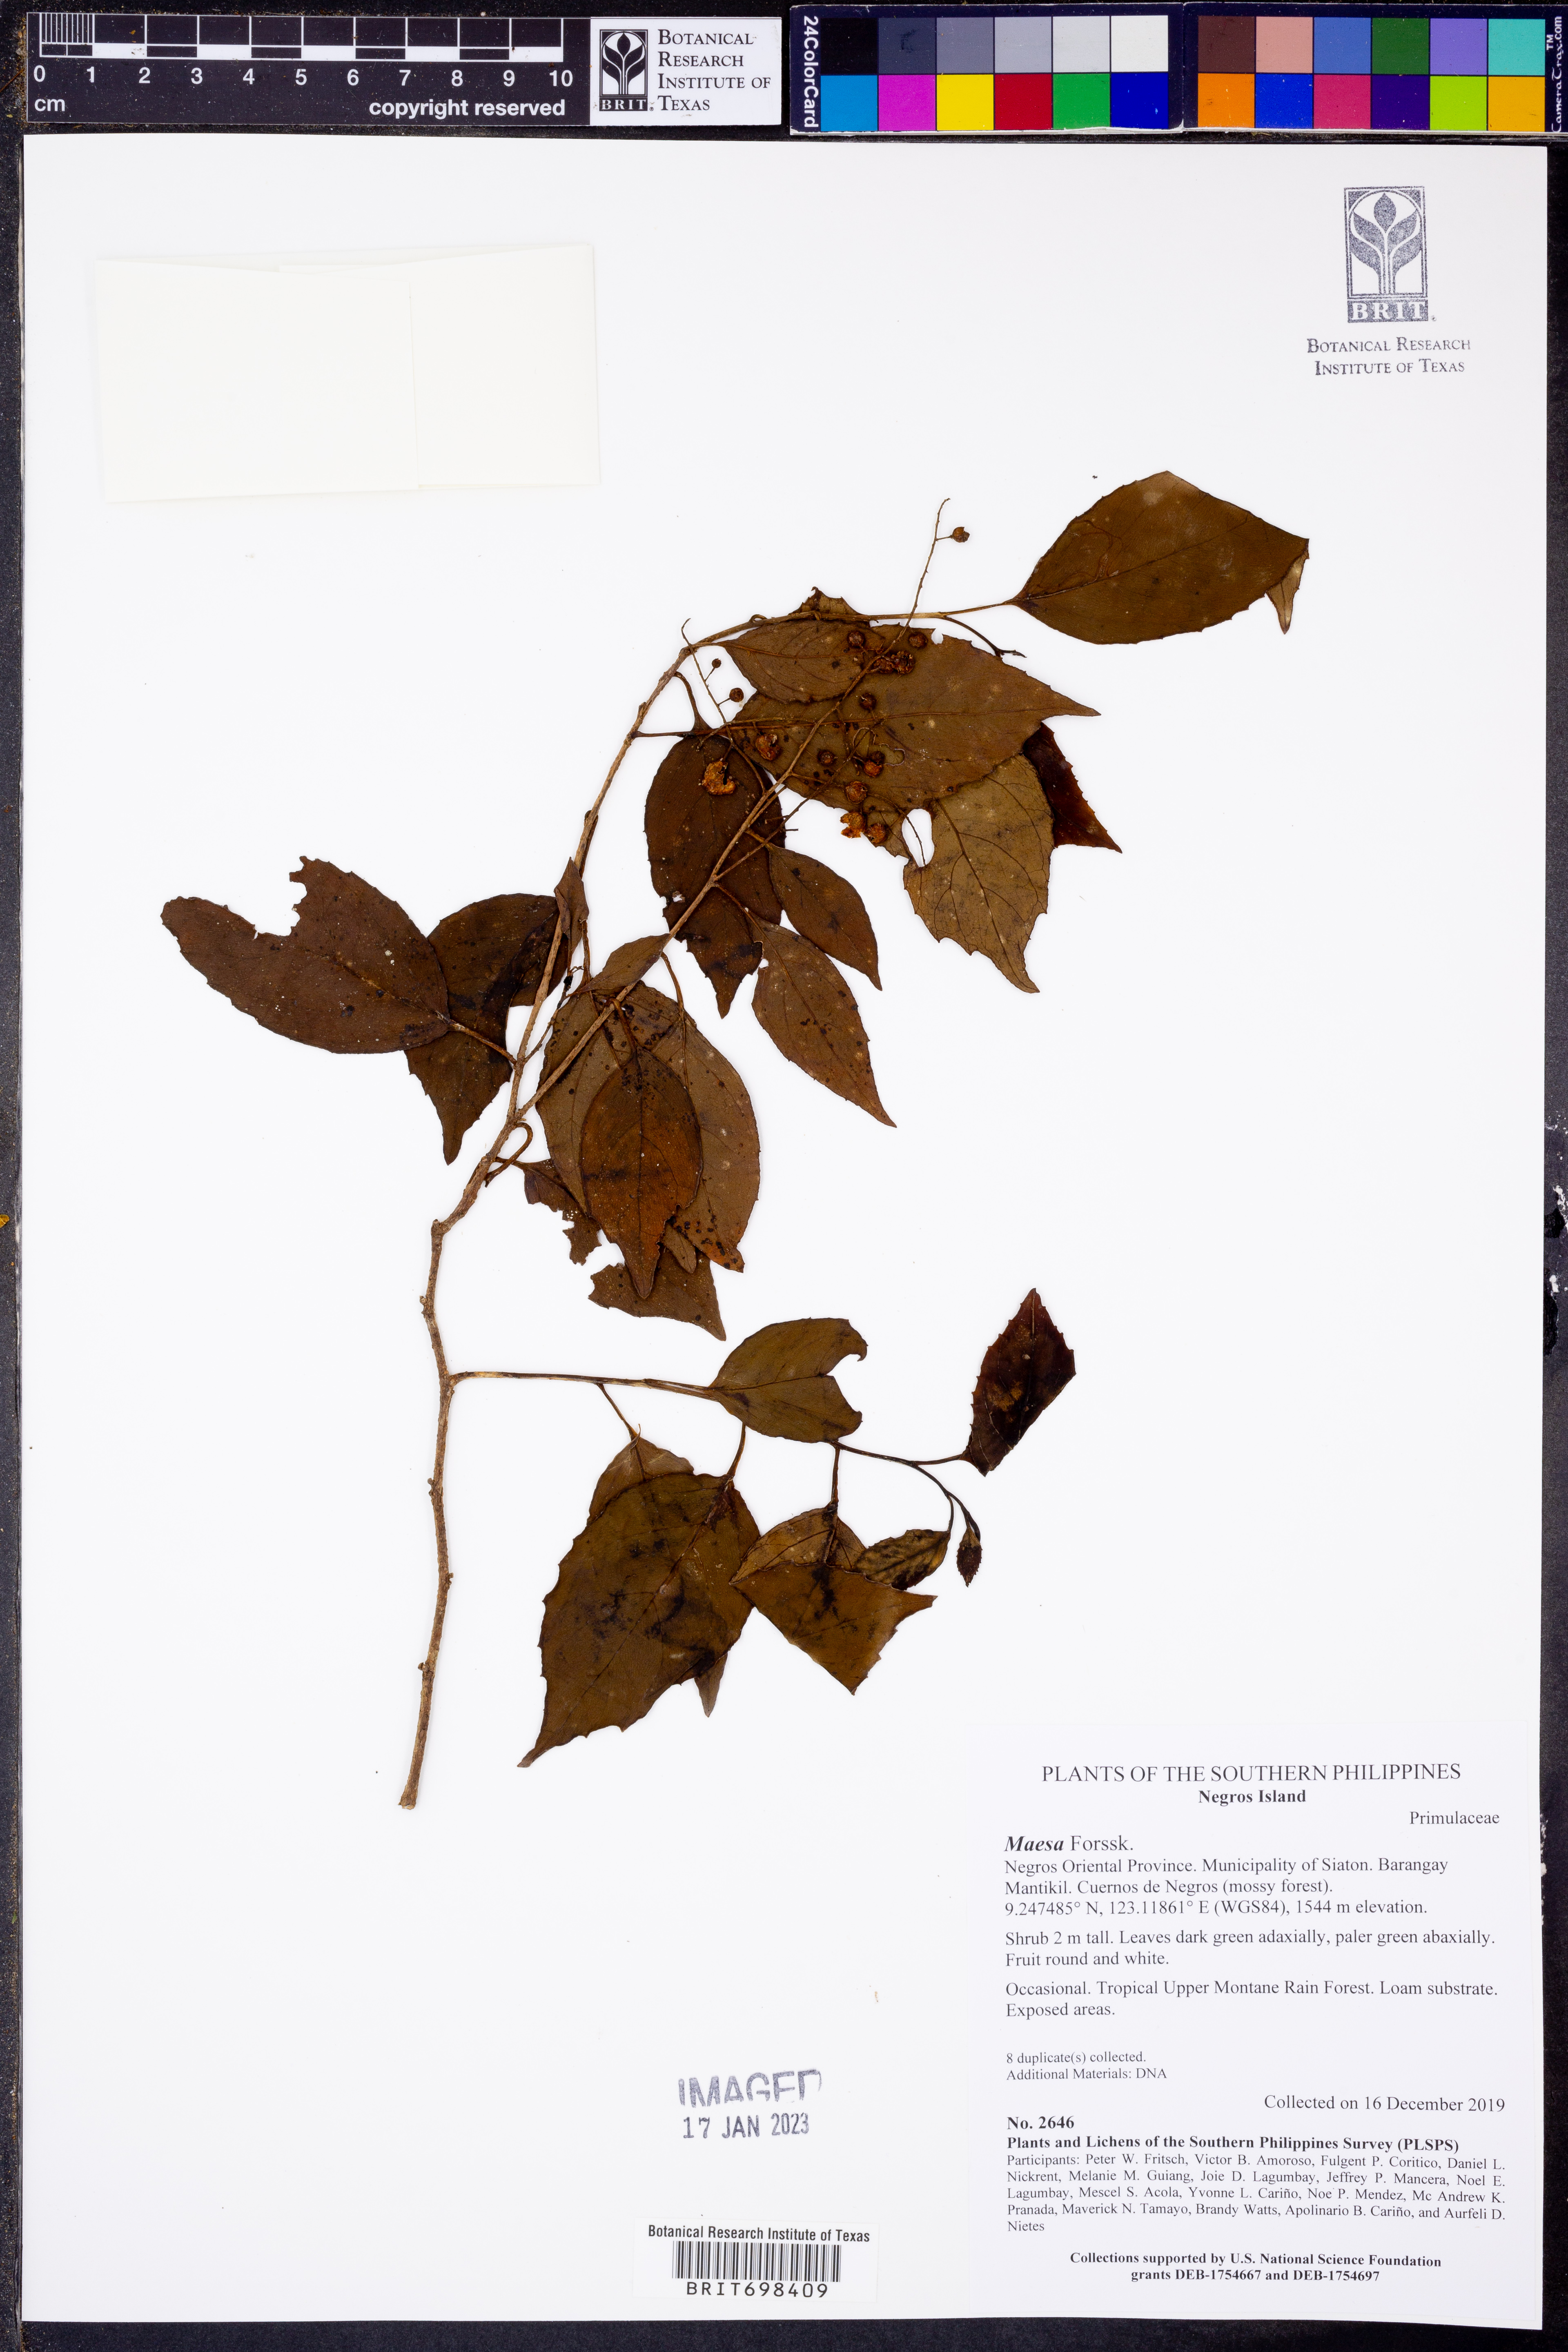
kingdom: Plantae
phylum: Tracheophyta
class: Magnoliopsida
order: Ericales
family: Primulaceae
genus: Maesa
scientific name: Maesa
